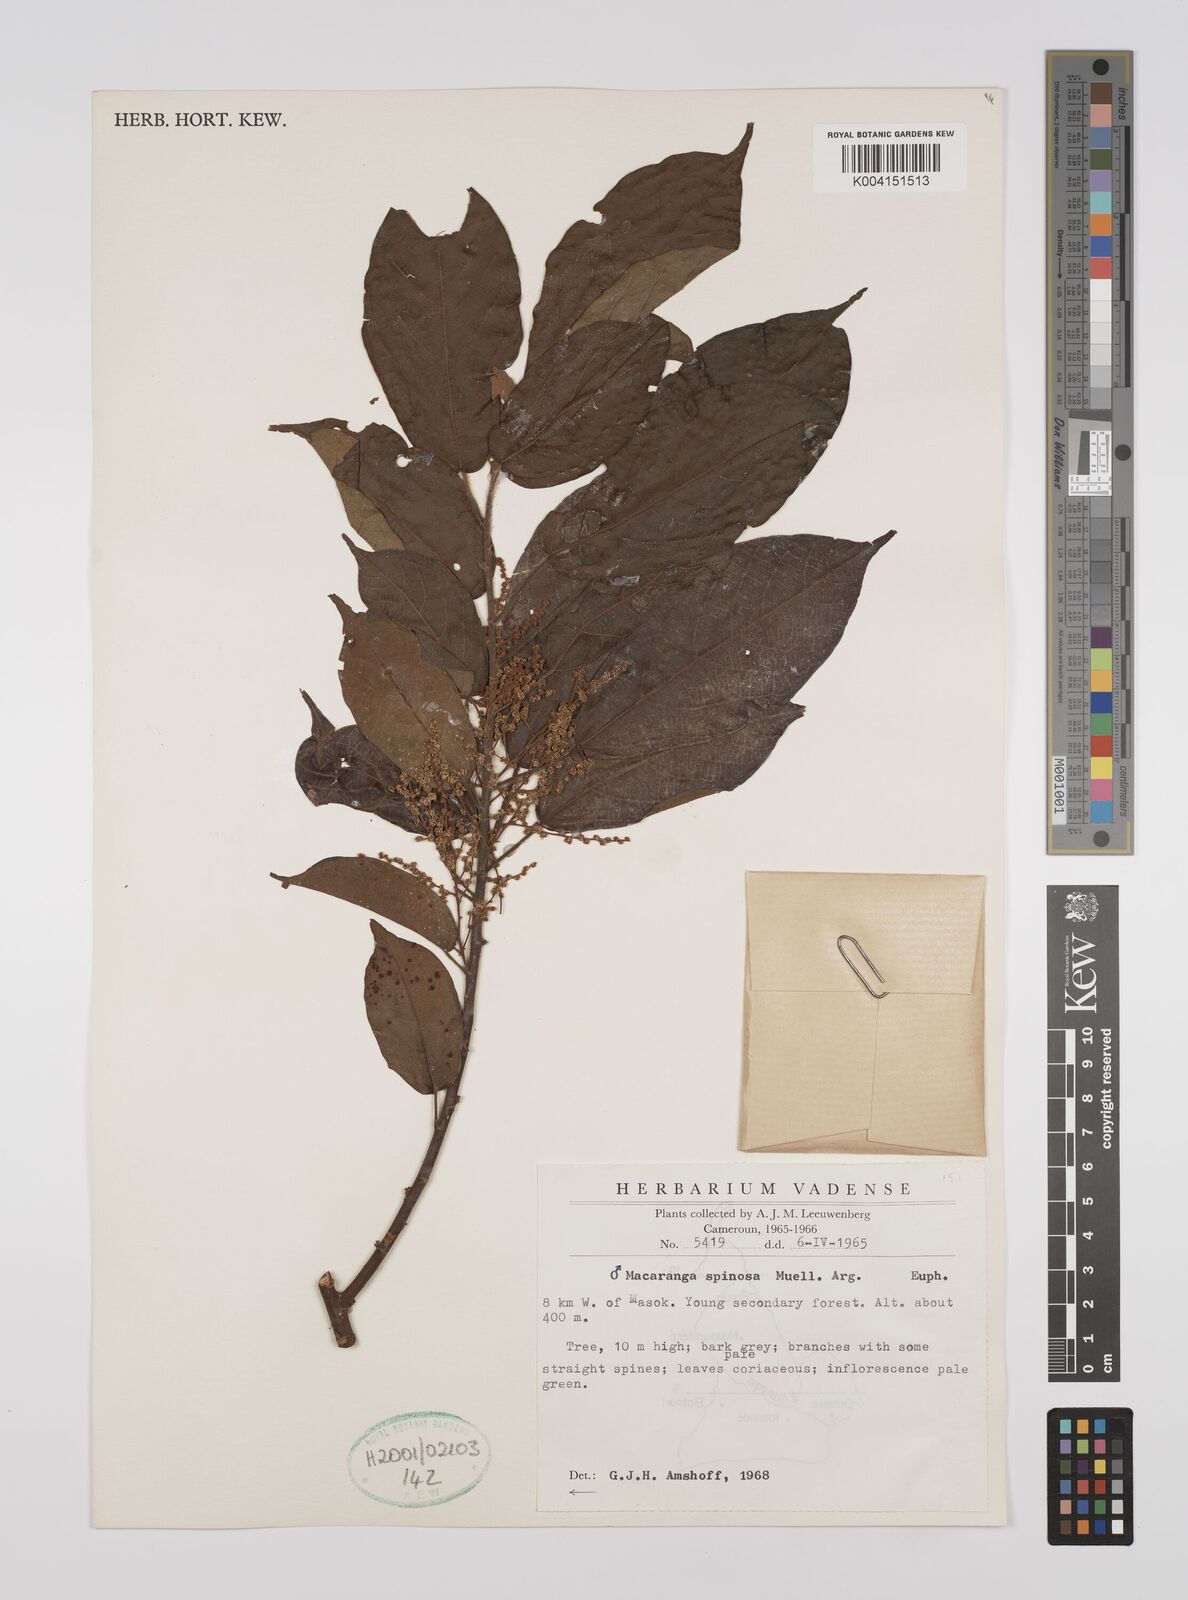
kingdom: Plantae
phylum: Tracheophyta
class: Magnoliopsida
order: Malpighiales
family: Euphorbiaceae
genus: Macaranga
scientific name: Macaranga spinosa
